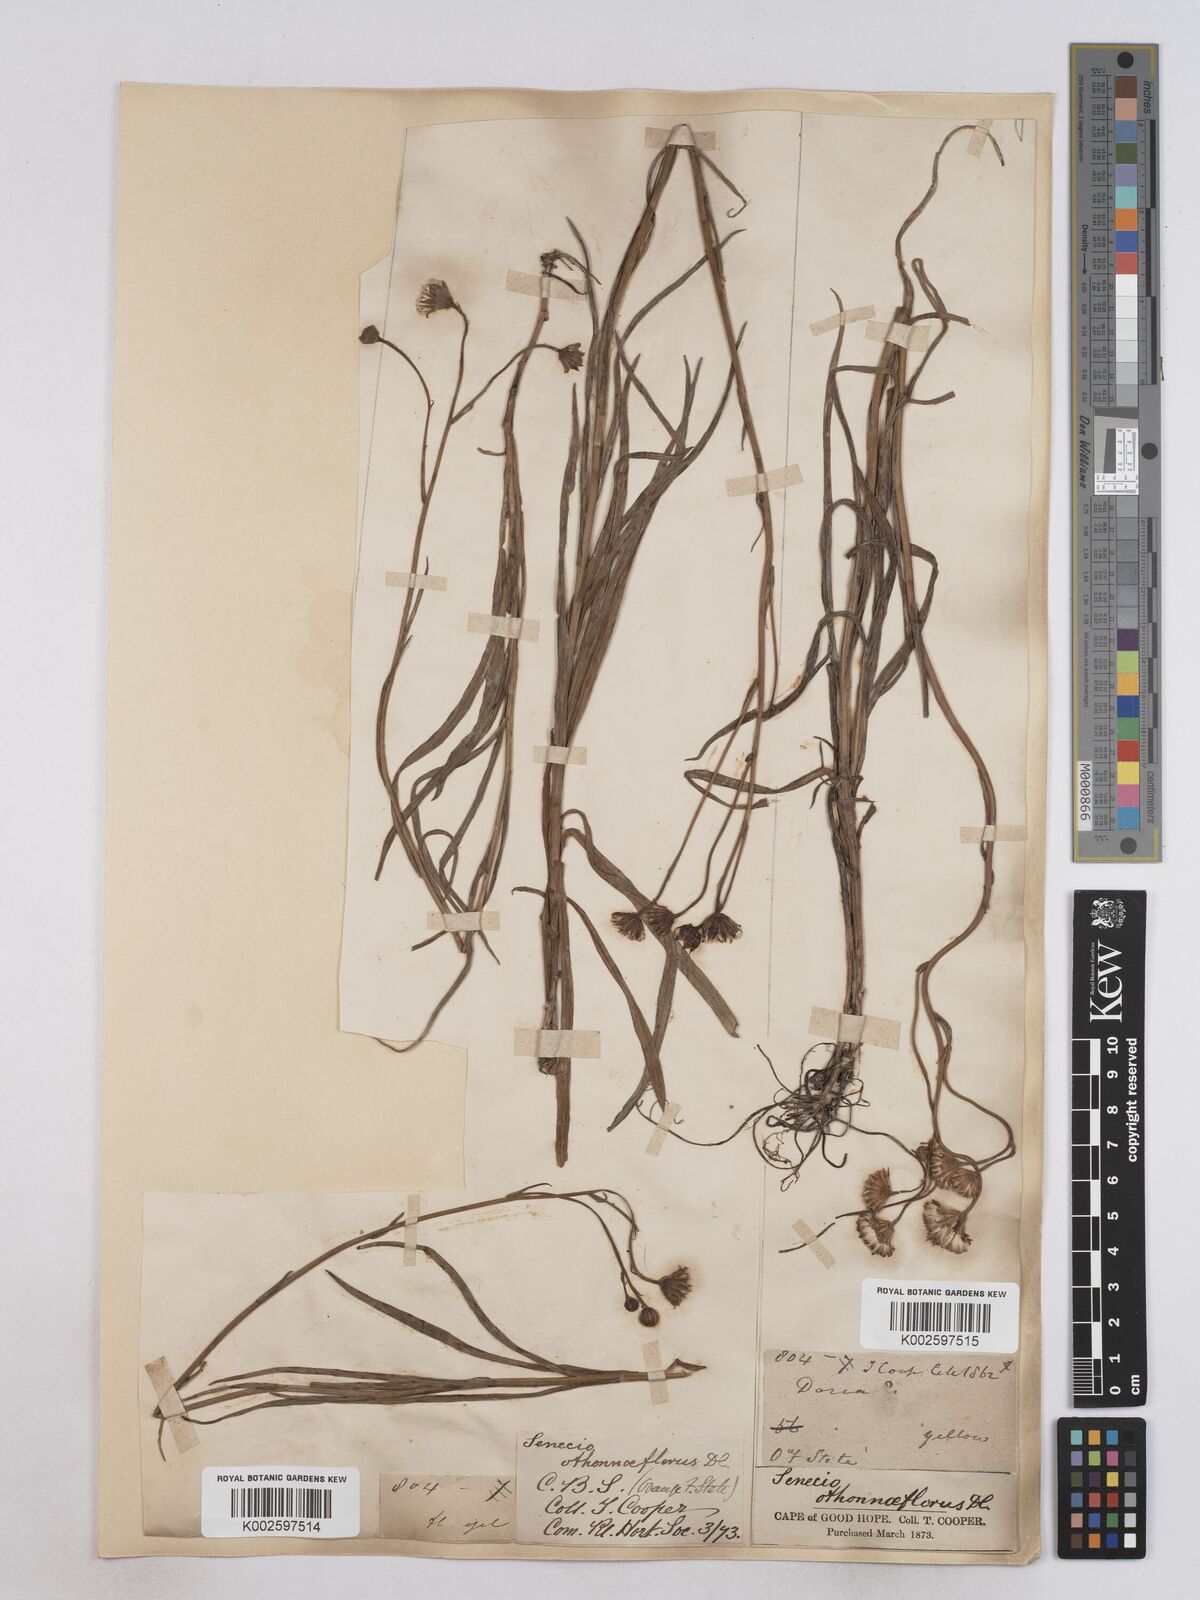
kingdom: Plantae
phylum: Tracheophyta
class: Magnoliopsida
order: Asterales
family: Asteraceae
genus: Senecio
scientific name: Senecio othonniflorus
